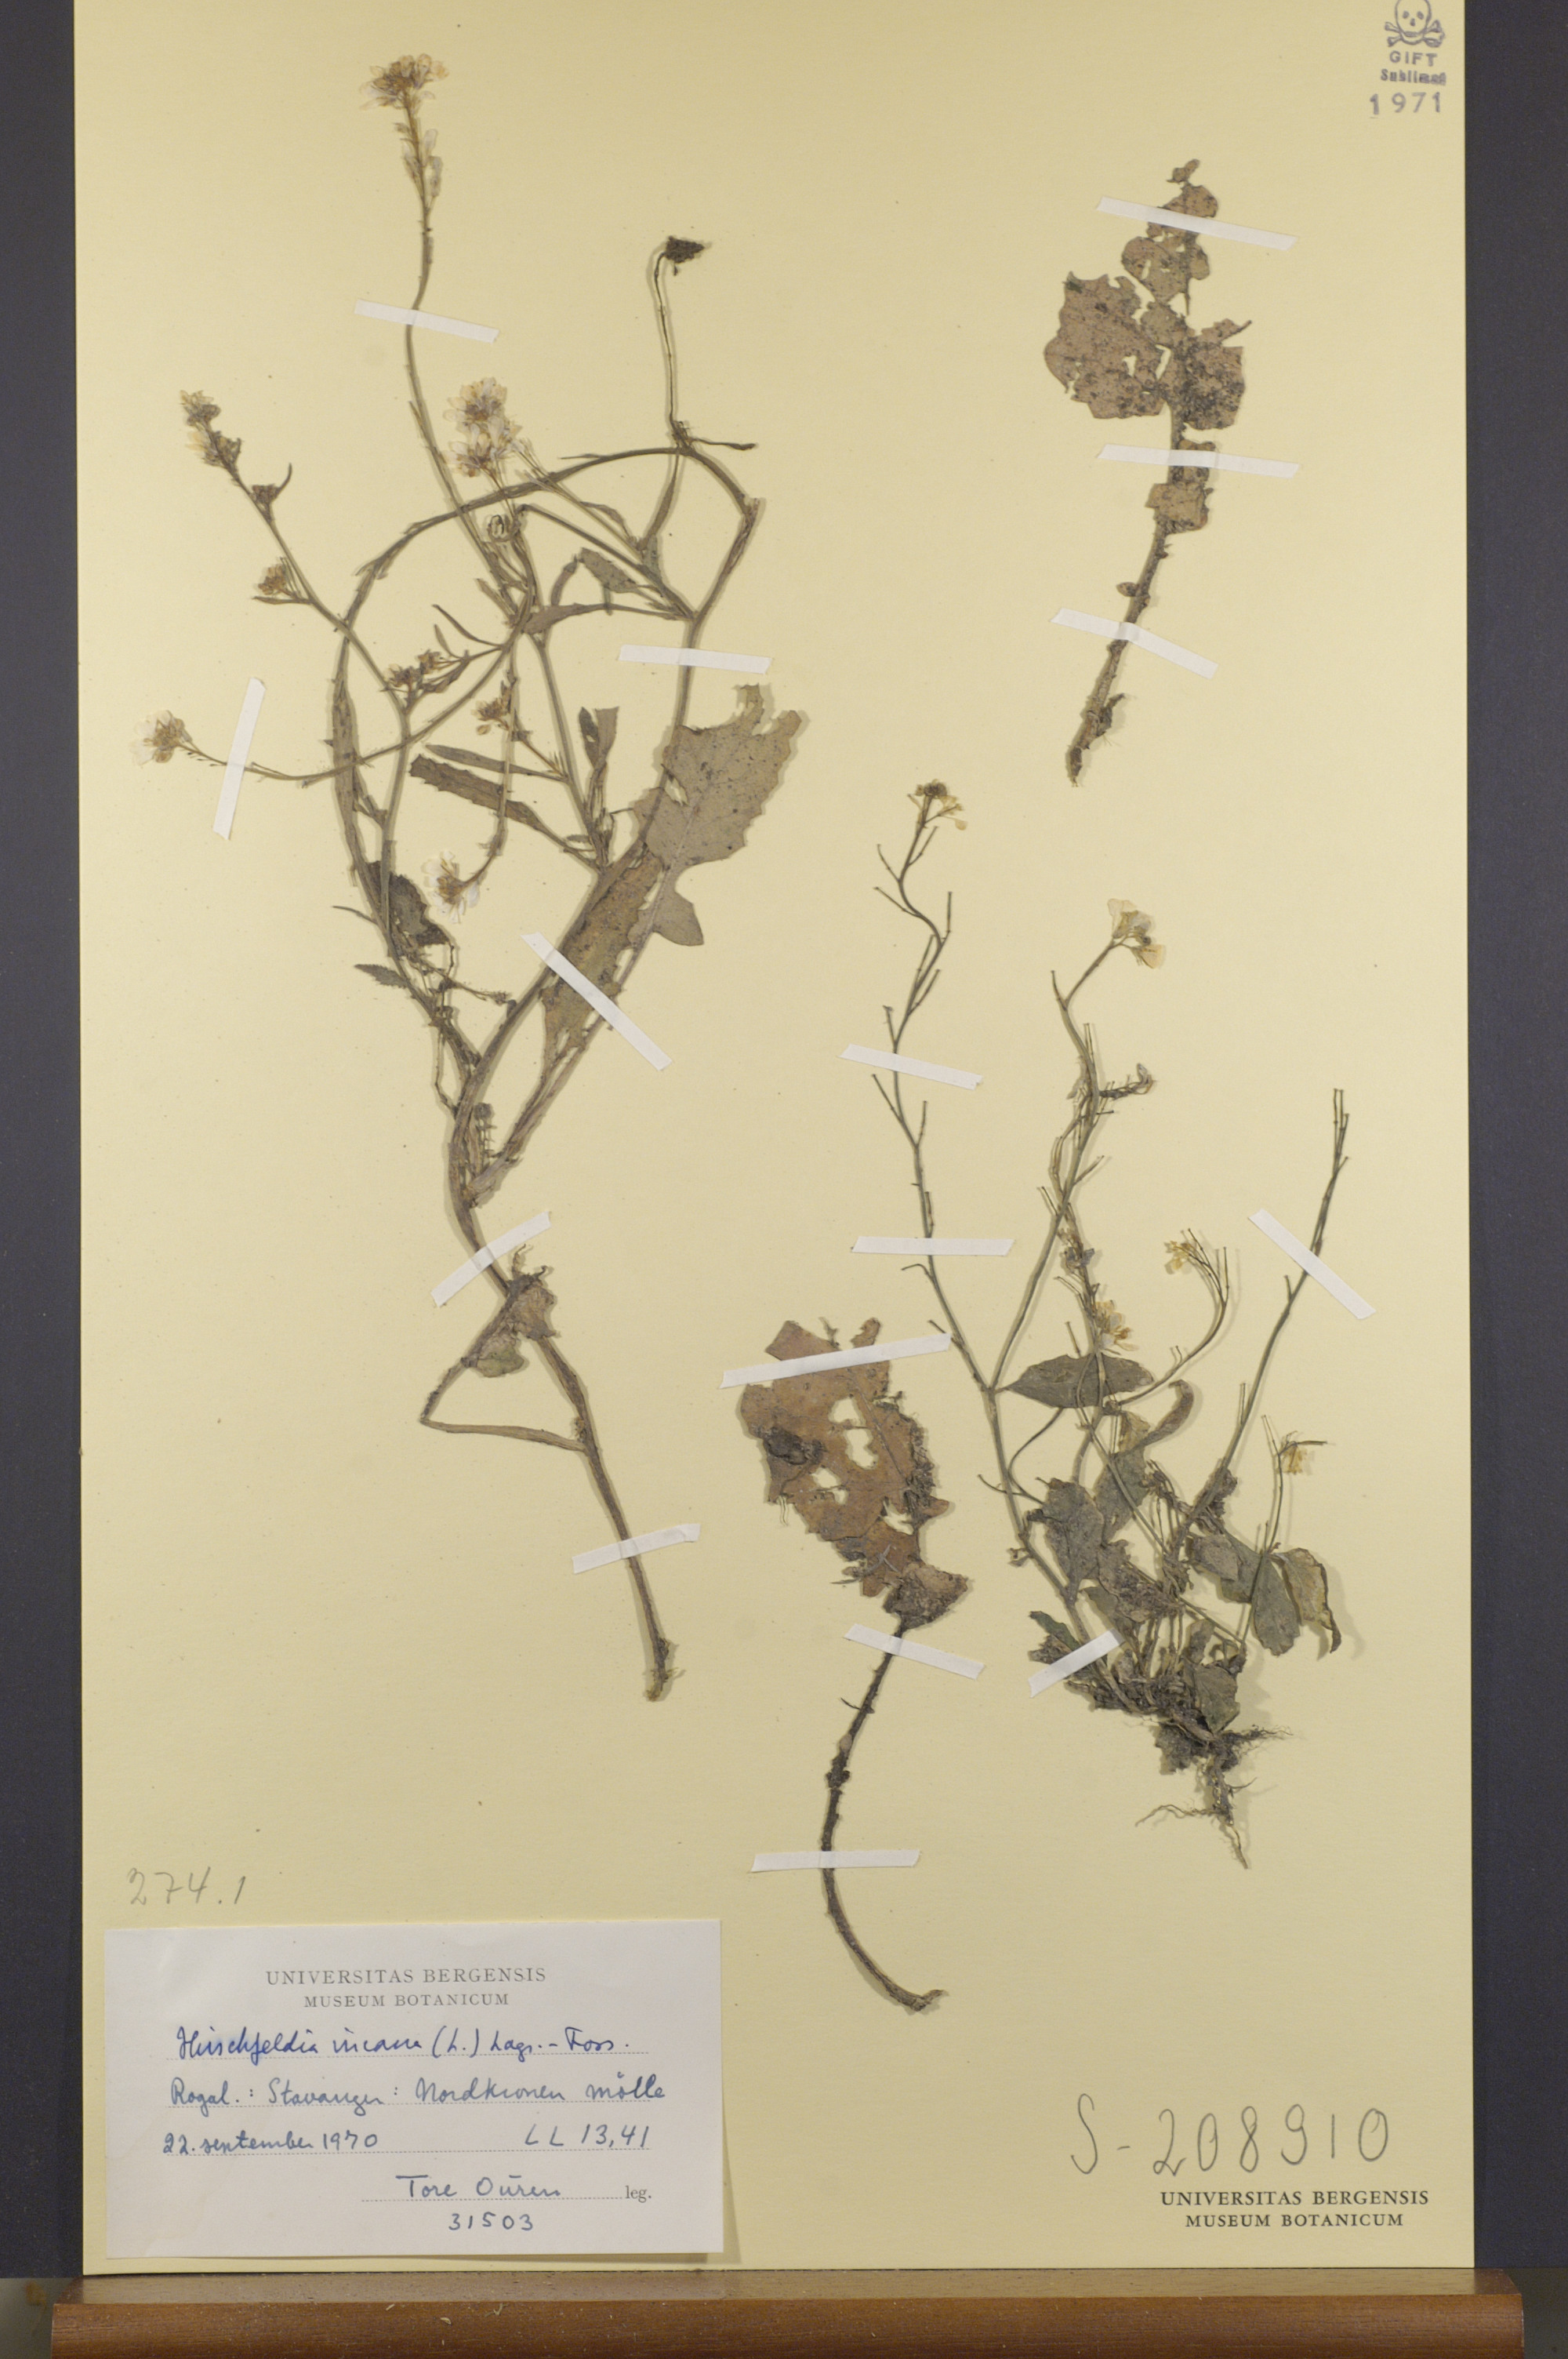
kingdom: Plantae
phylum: Tracheophyta
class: Magnoliopsida
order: Brassicales
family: Brassicaceae
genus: Hirschfeldia
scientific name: Hirschfeldia incana
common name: Hoary mustard
